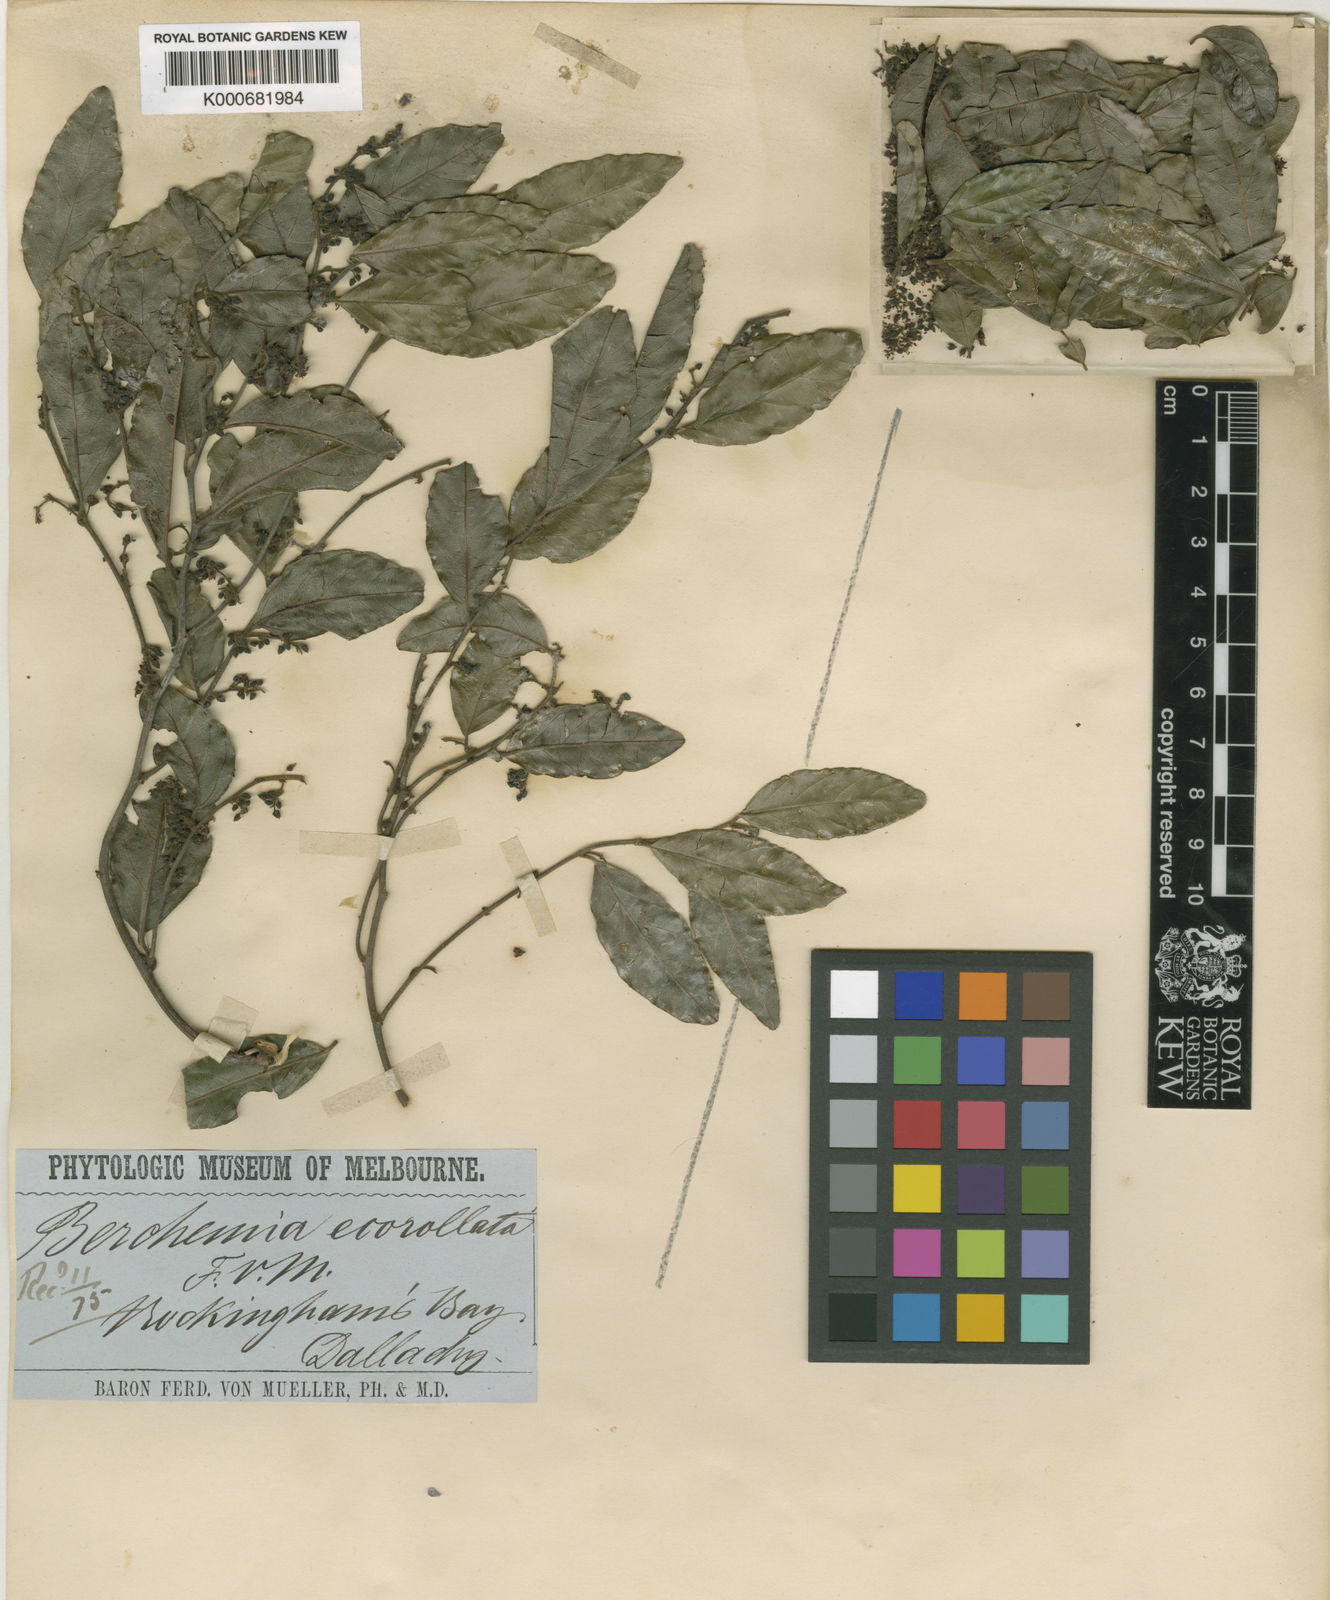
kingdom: Plantae
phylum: Tracheophyta
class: Magnoliopsida
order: Rosales
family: Rhamnaceae
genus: Ventilago
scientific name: Ventilago ecorollata
